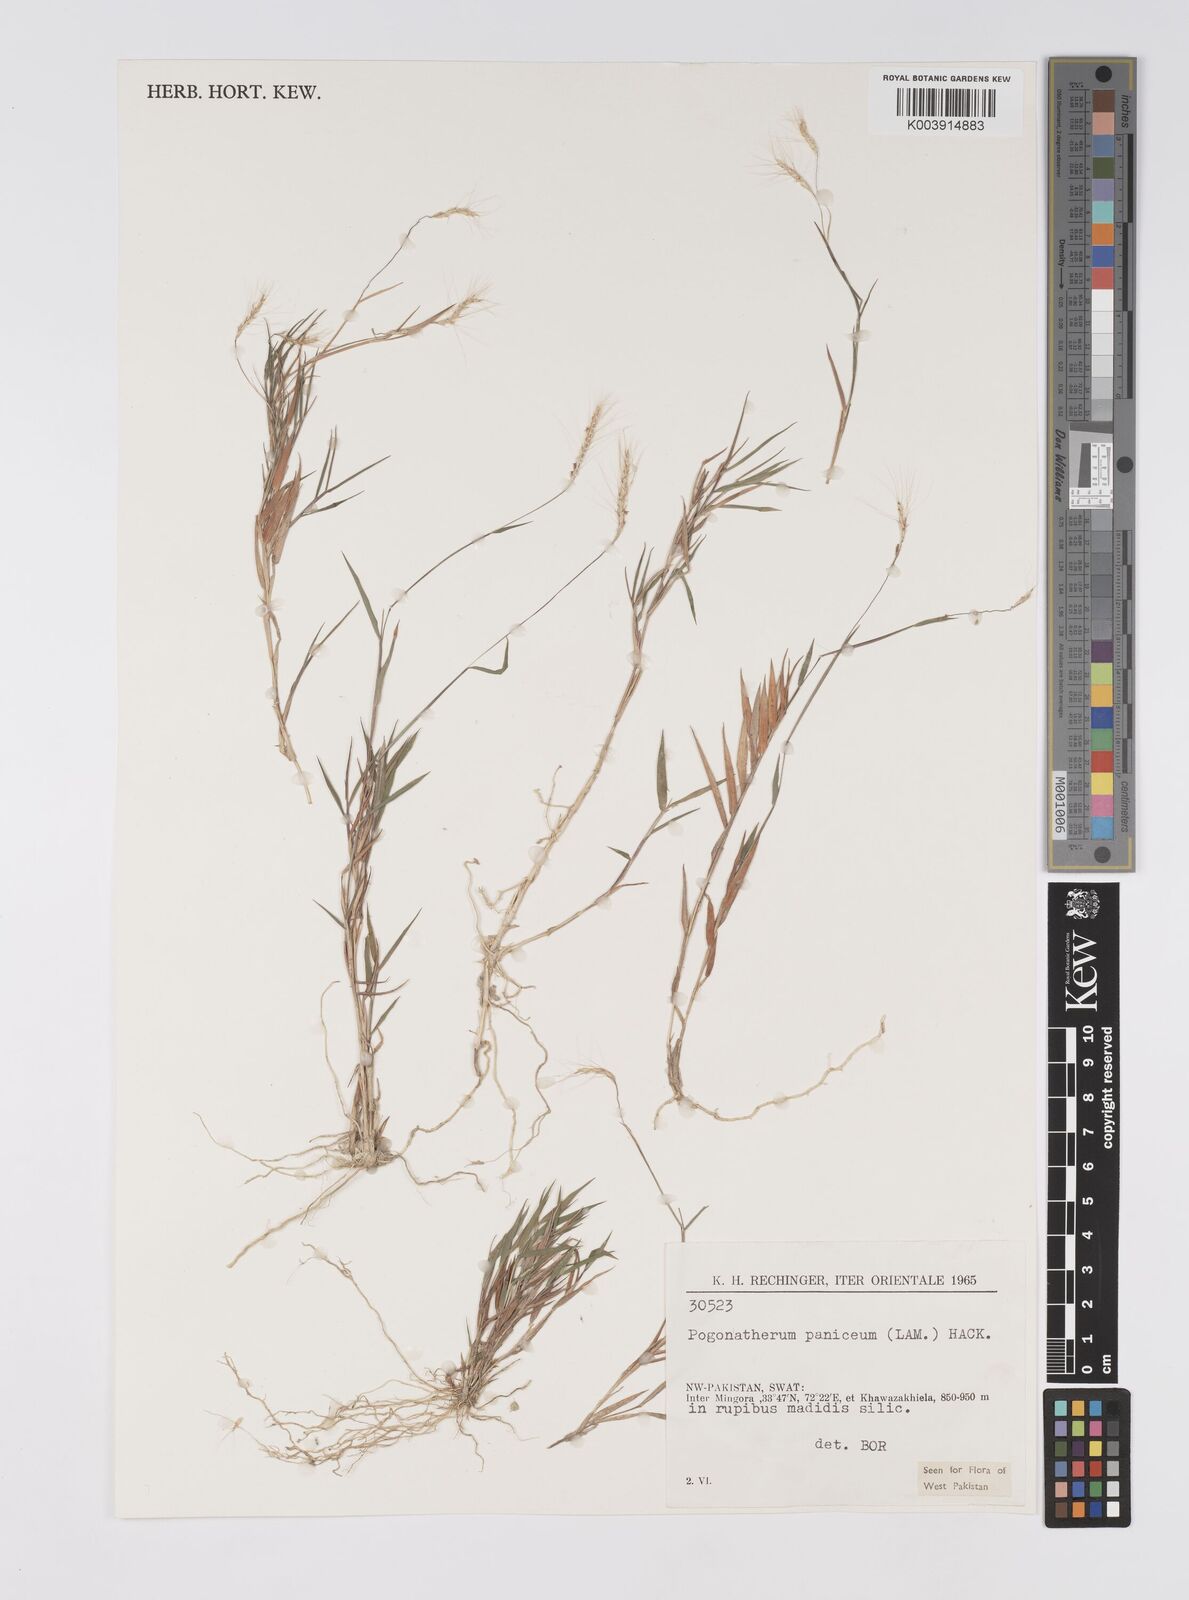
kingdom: Plantae
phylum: Tracheophyta
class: Liliopsida
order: Poales
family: Poaceae
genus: Pogonatherum
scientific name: Pogonatherum paniceum
